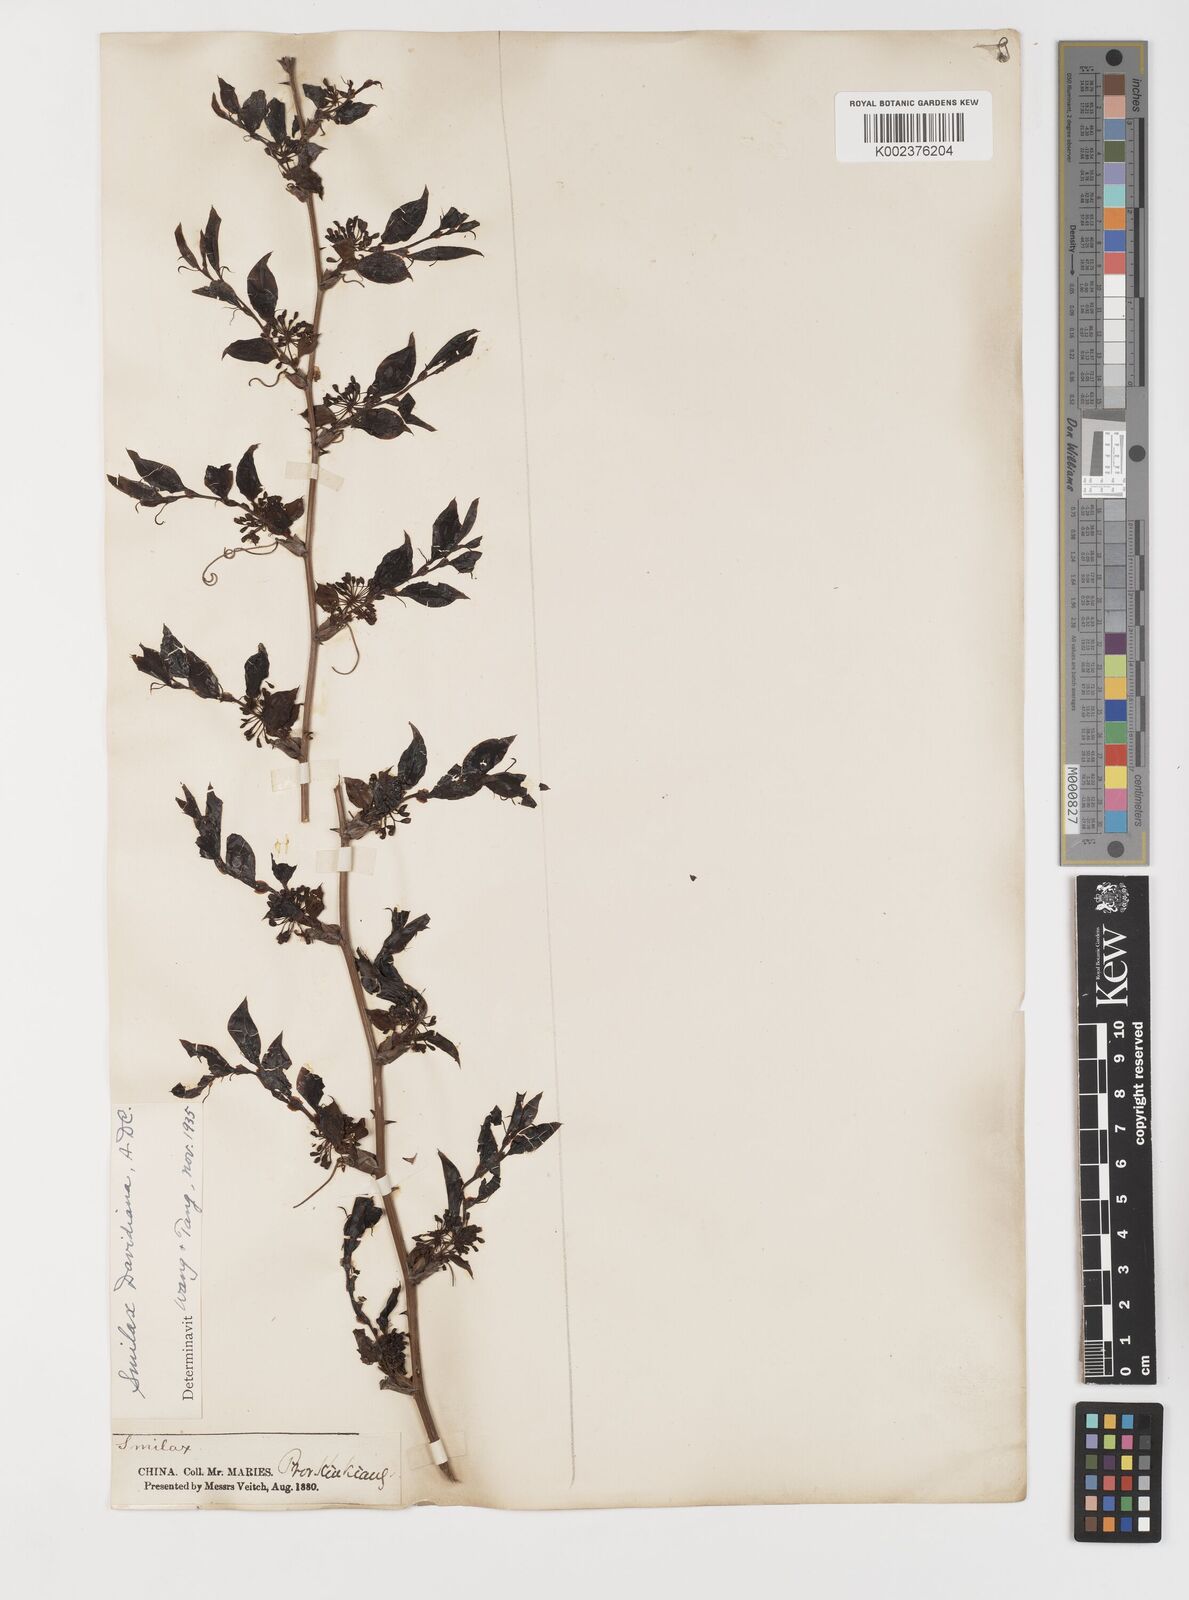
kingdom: Plantae
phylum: Tracheophyta
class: Liliopsida
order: Liliales
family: Smilacaceae
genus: Smilax
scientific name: Smilax davidiana
